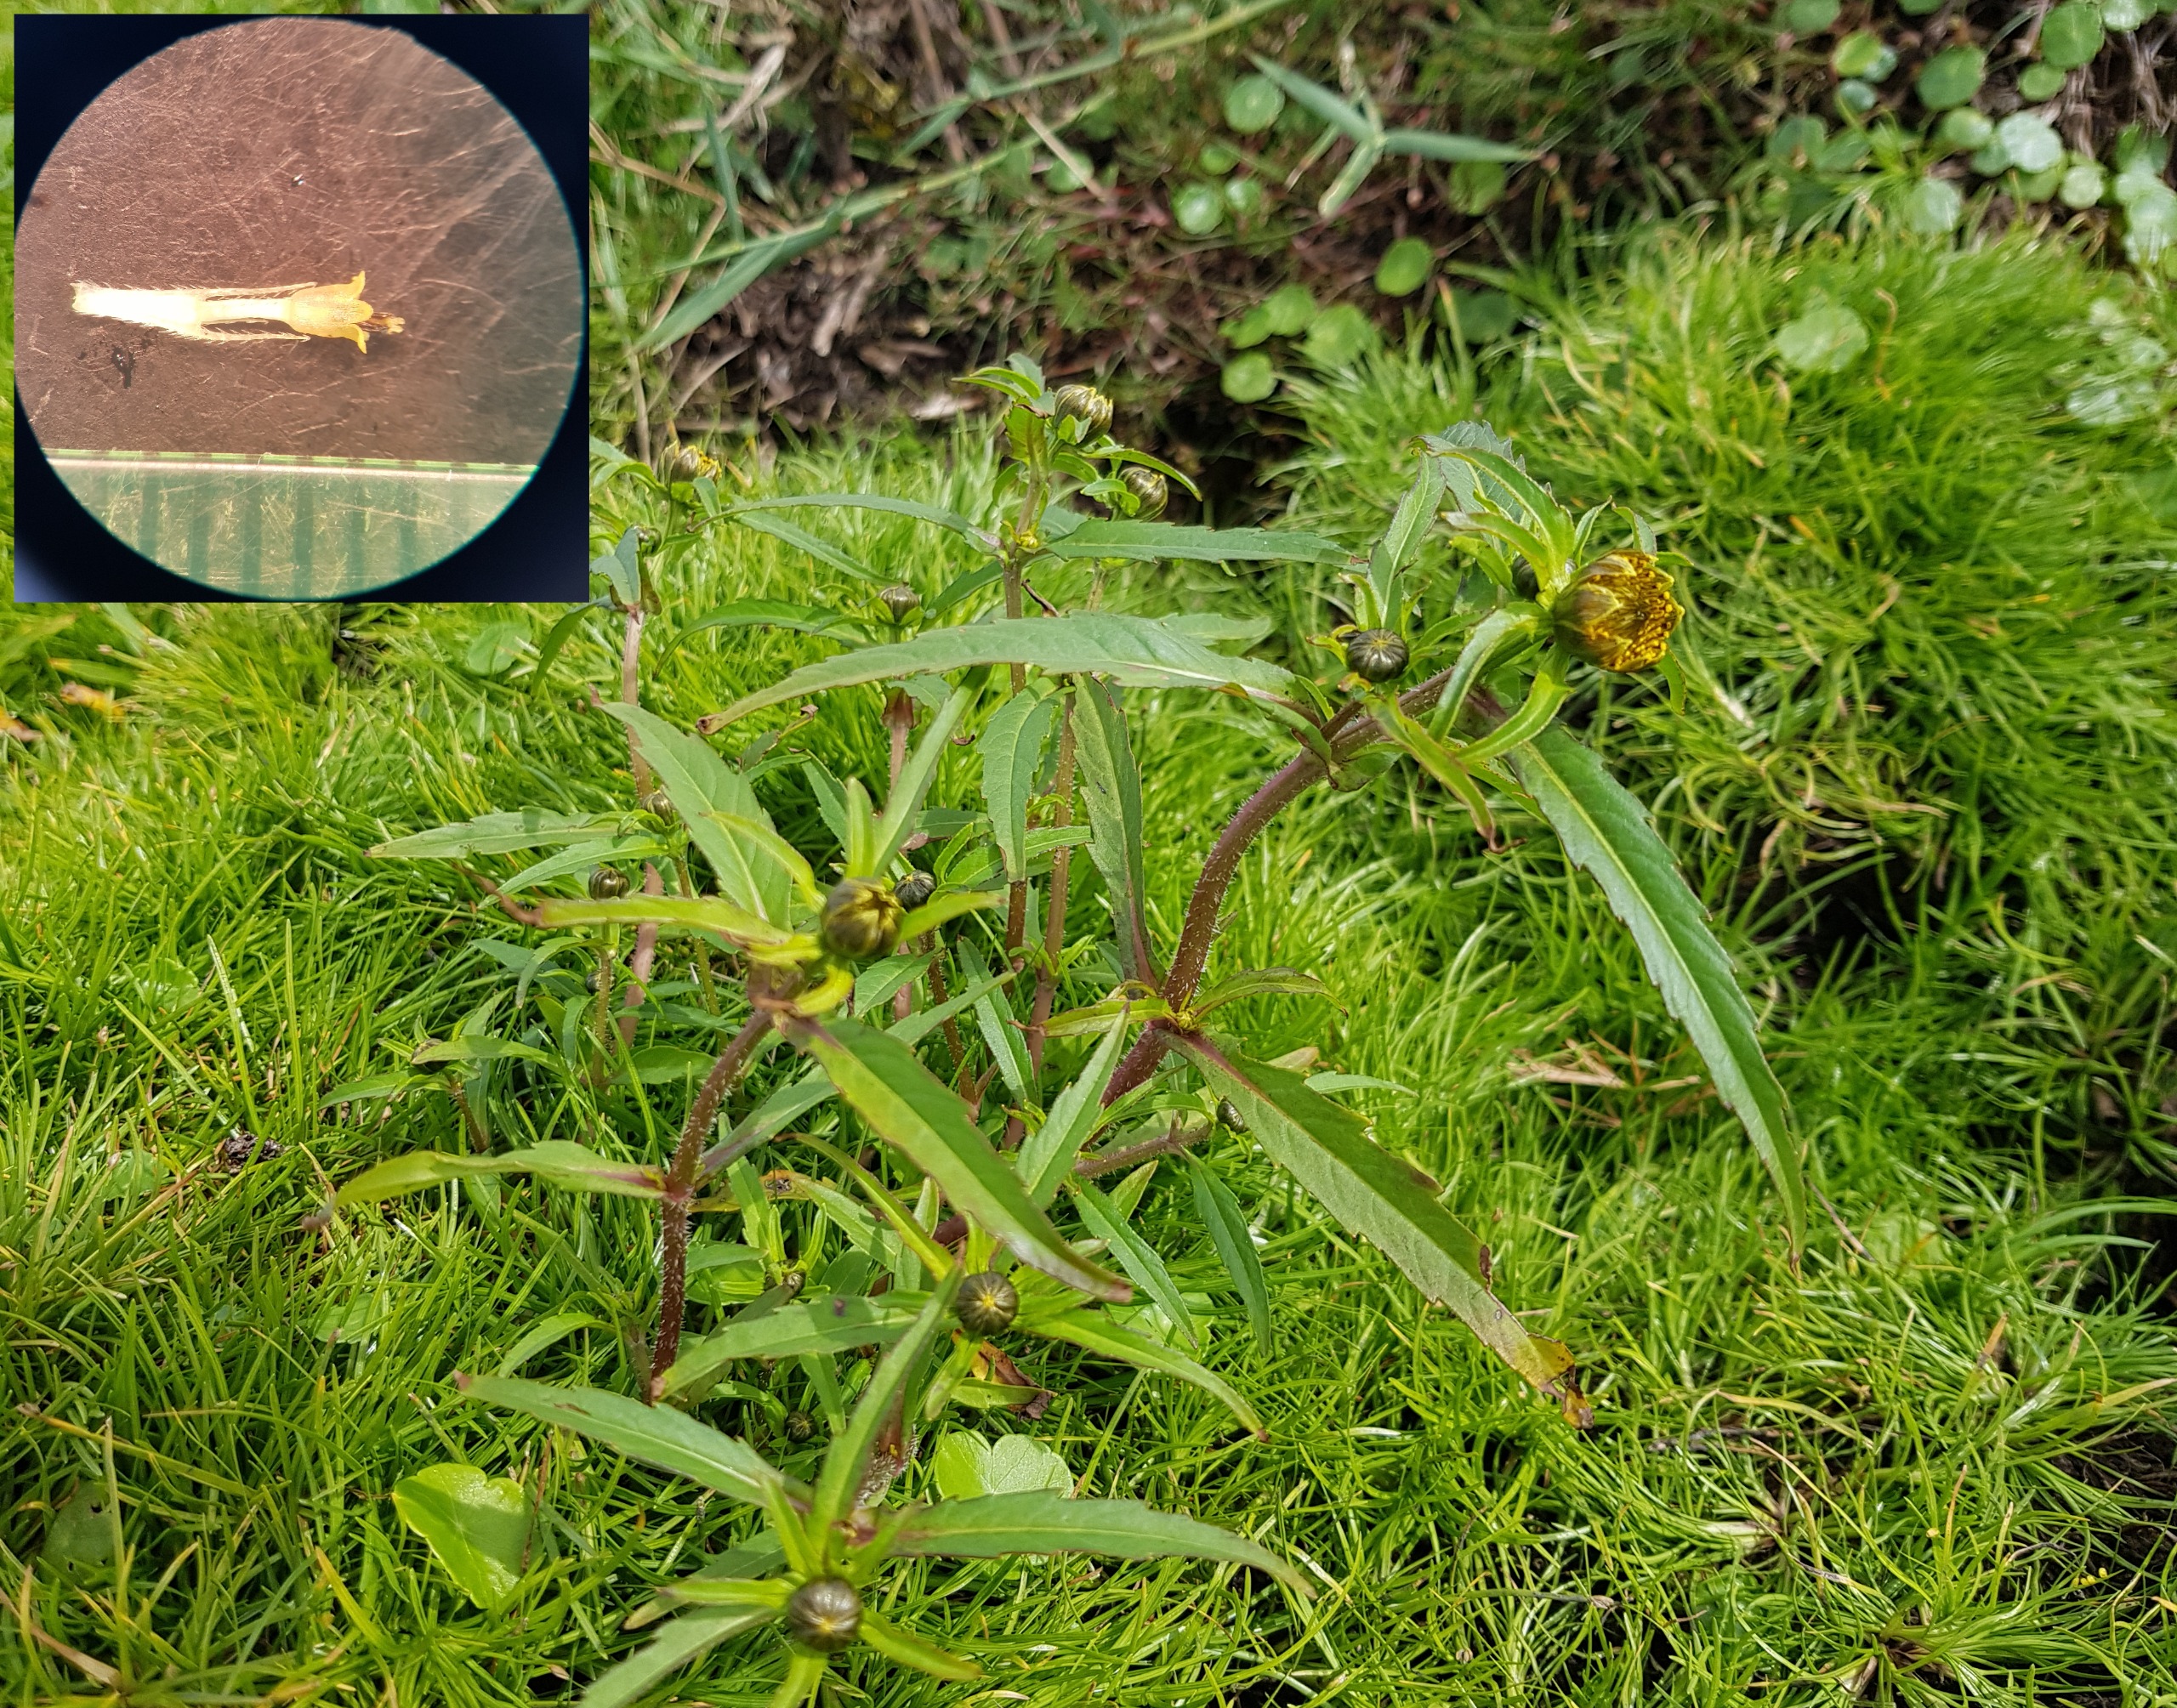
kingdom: Plantae
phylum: Tracheophyta
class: Magnoliopsida
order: Asterales
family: Asteraceae
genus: Bidens
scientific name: Bidens cernua
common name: Nikkende brøndsel
